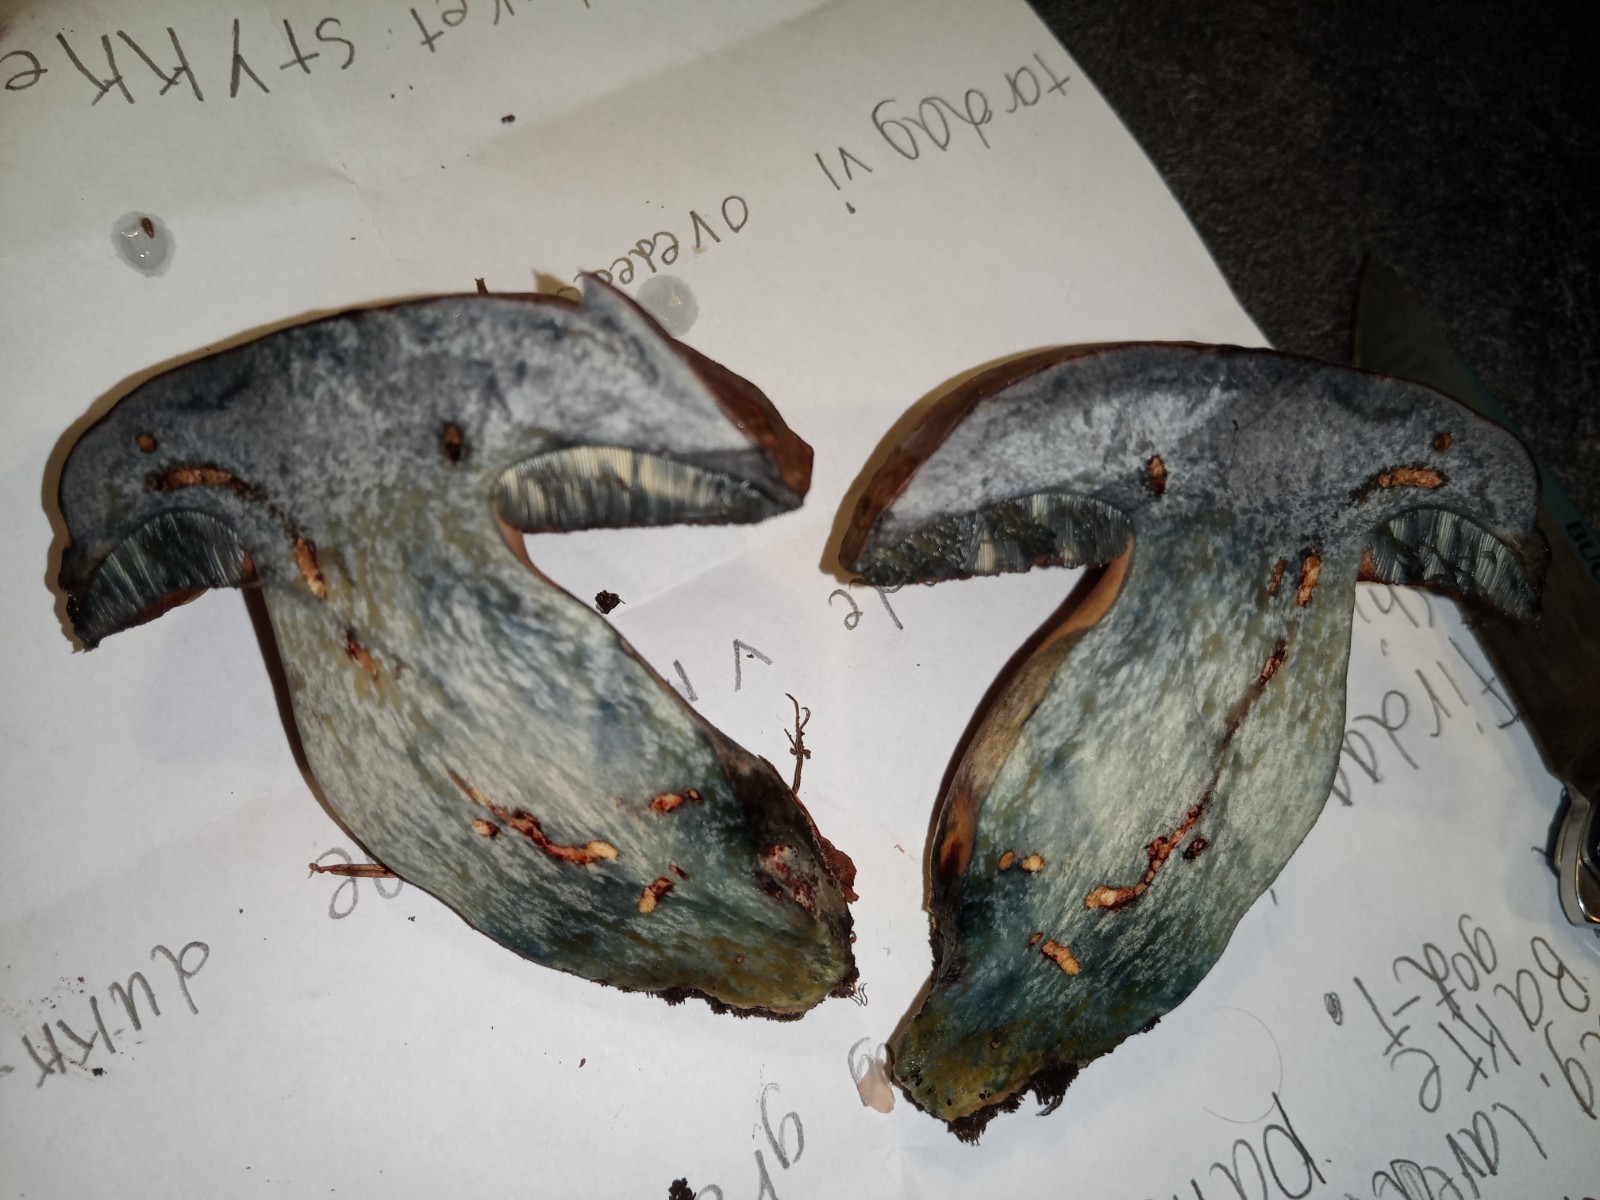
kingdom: Fungi
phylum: Basidiomycota
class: Agaricomycetes
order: Boletales
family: Boletaceae
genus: Neoboletus
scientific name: Neoboletus xanthopus
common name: finprikket indigorørhat
